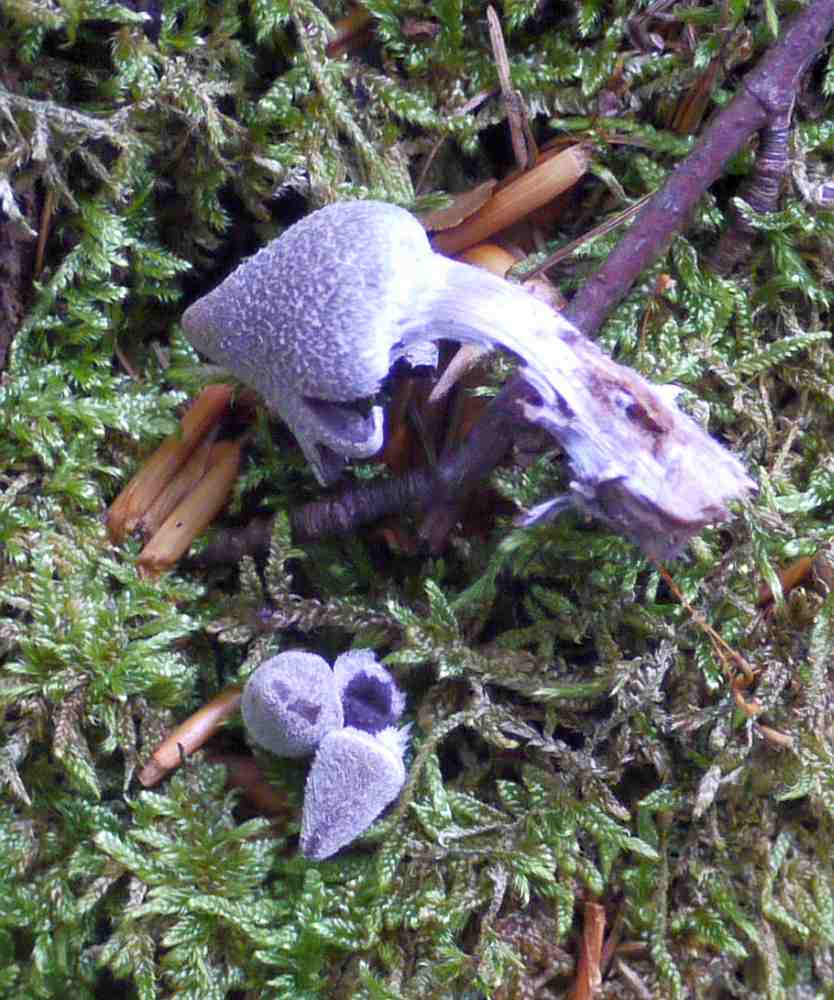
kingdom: Fungi
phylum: Basidiomycota
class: Agaricomycetes
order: Agaricales
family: Cortinariaceae
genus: Cortinarius
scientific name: Cortinarius
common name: pelargonie-slørhat
